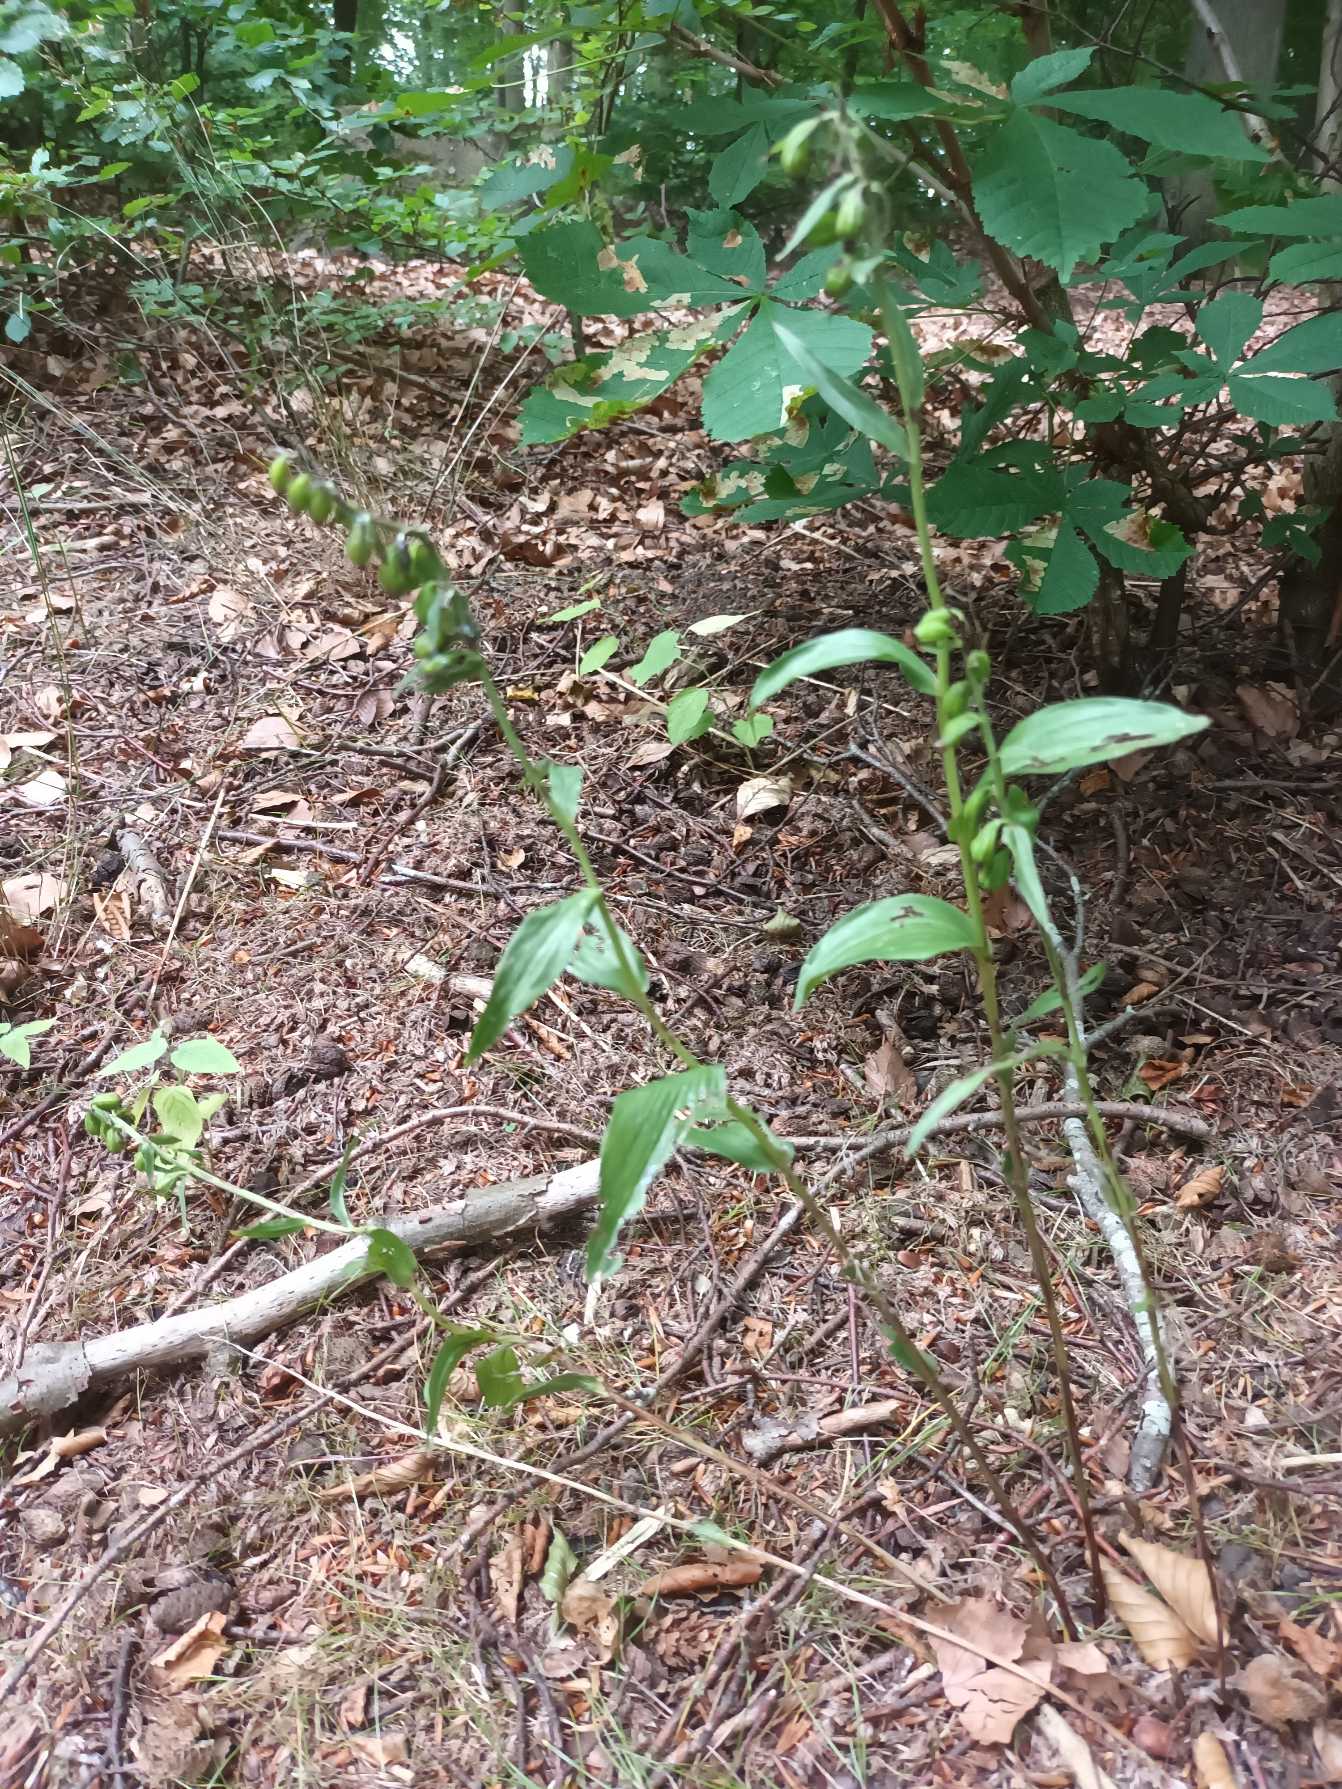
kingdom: Plantae
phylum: Tracheophyta
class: Liliopsida
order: Asparagales
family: Orchidaceae
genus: Epipactis
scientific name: Epipactis phyllanthes
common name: Nikkende hullæbe
